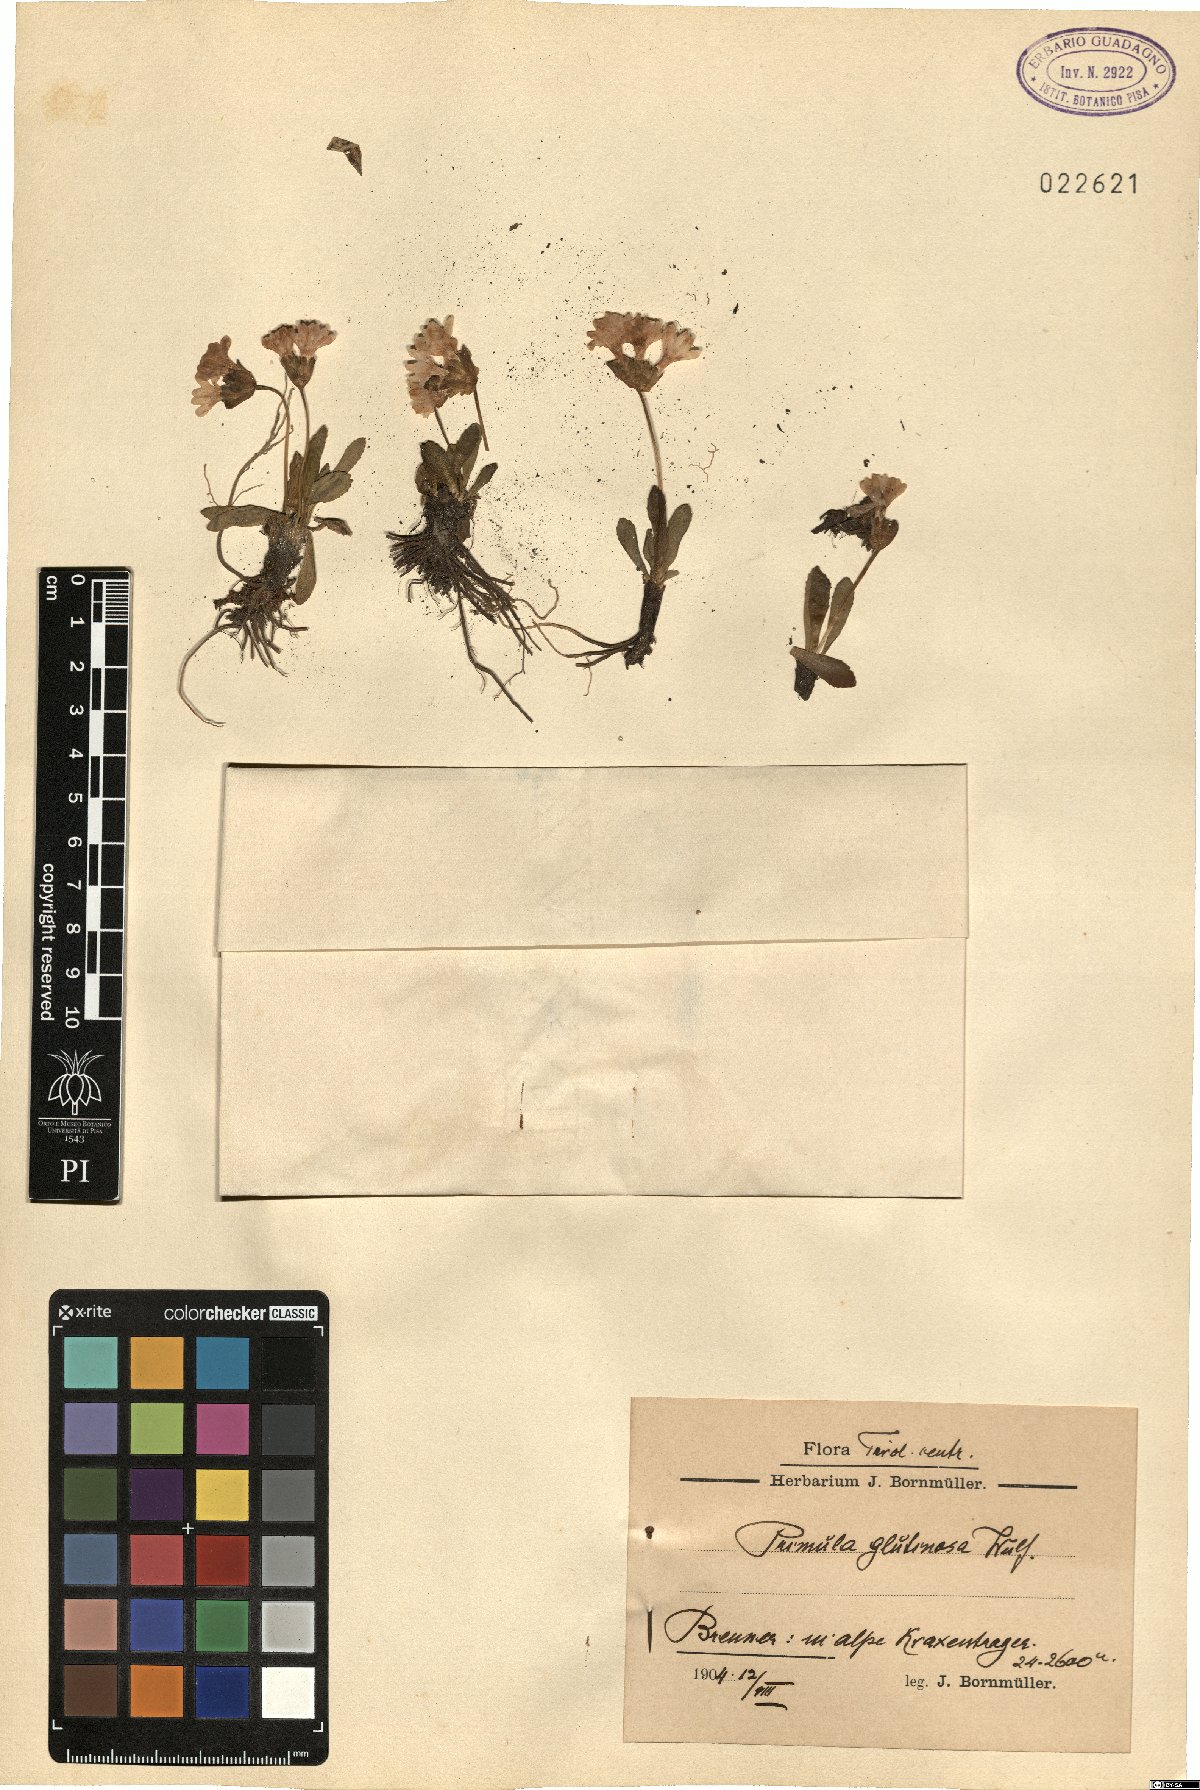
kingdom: Plantae
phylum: Tracheophyta
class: Magnoliopsida
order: Ericales
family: Primulaceae
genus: Primula
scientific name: Primula glutinosa
